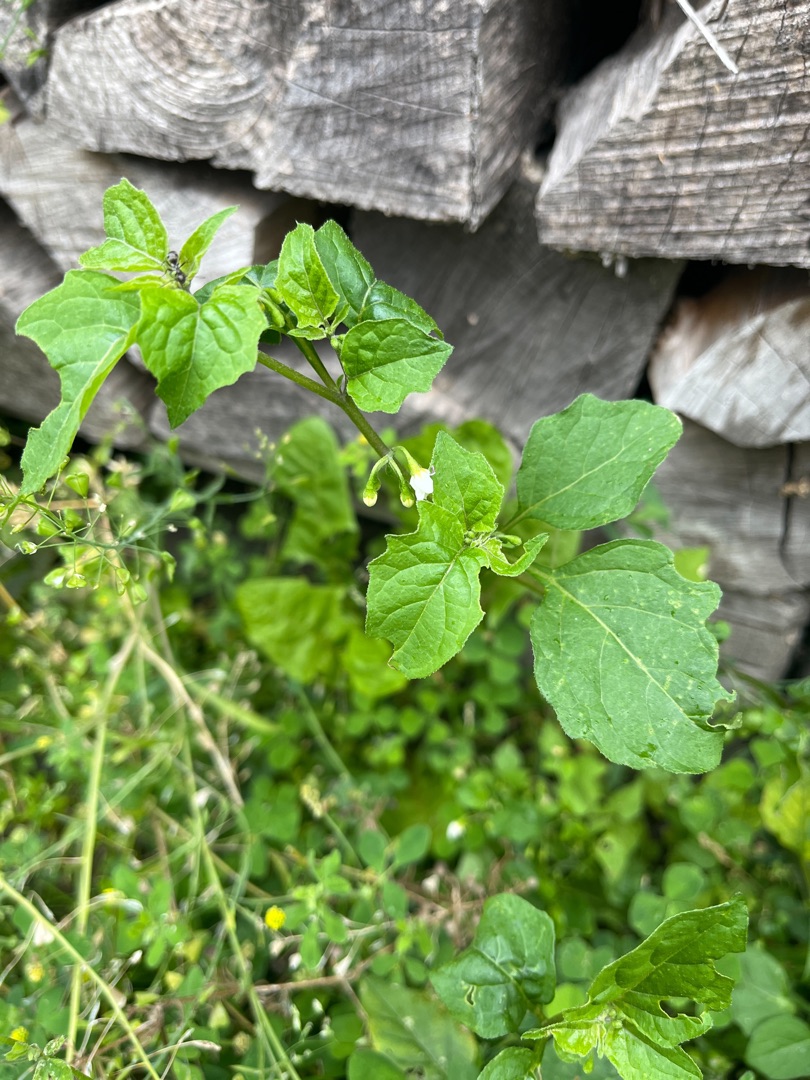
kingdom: Plantae
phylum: Tracheophyta
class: Magnoliopsida
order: Solanales
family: Solanaceae
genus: Solanum
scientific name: Solanum nigrum
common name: Sort natskygge
